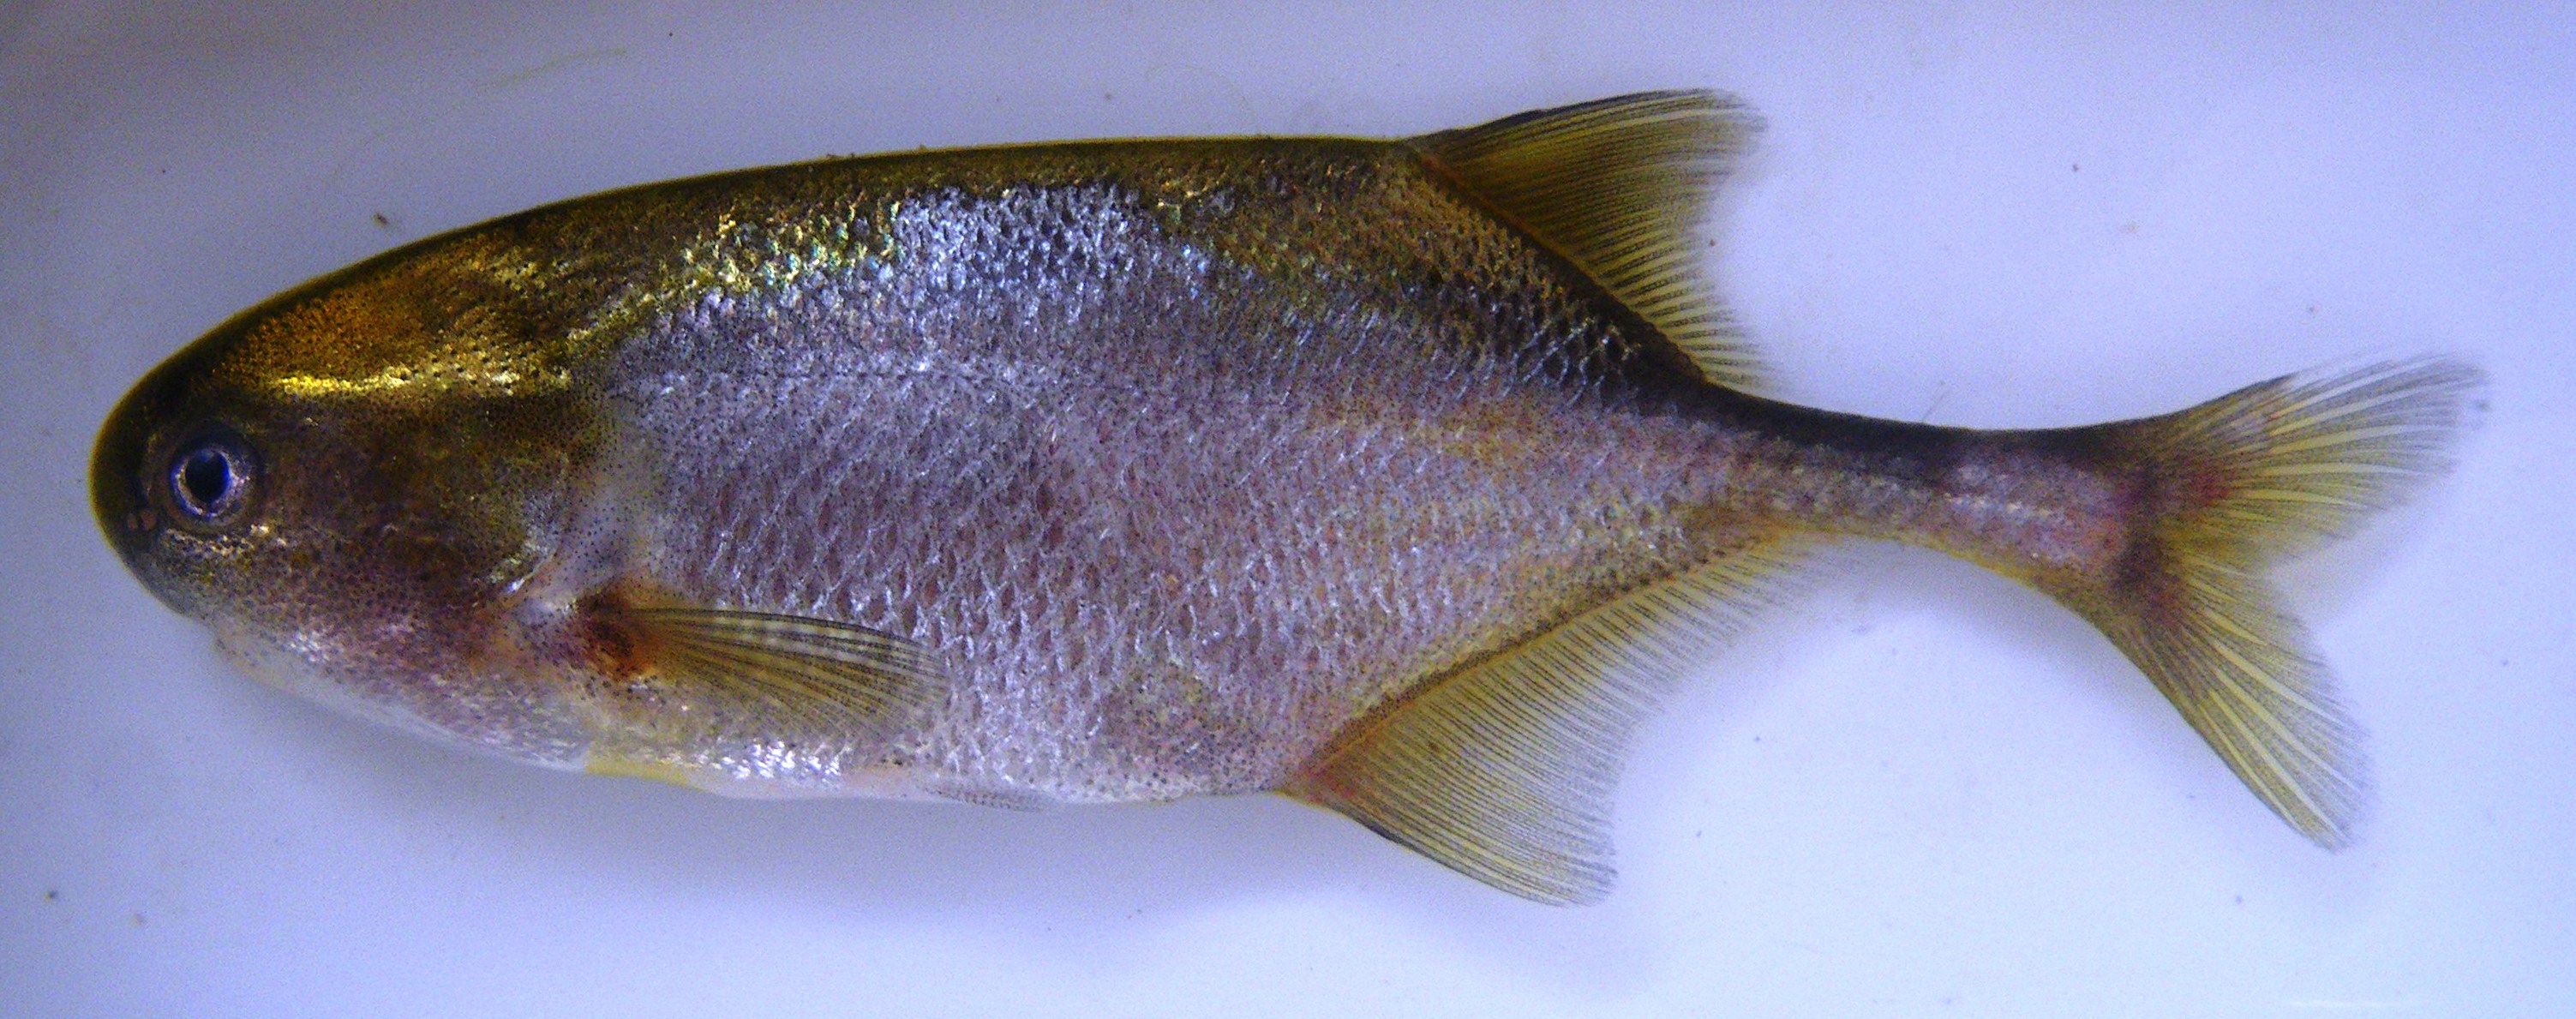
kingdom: Animalia
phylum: Chordata
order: Osteoglossiformes
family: Mormyridae
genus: Petrocephalus
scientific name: Petrocephalus squalostoma
